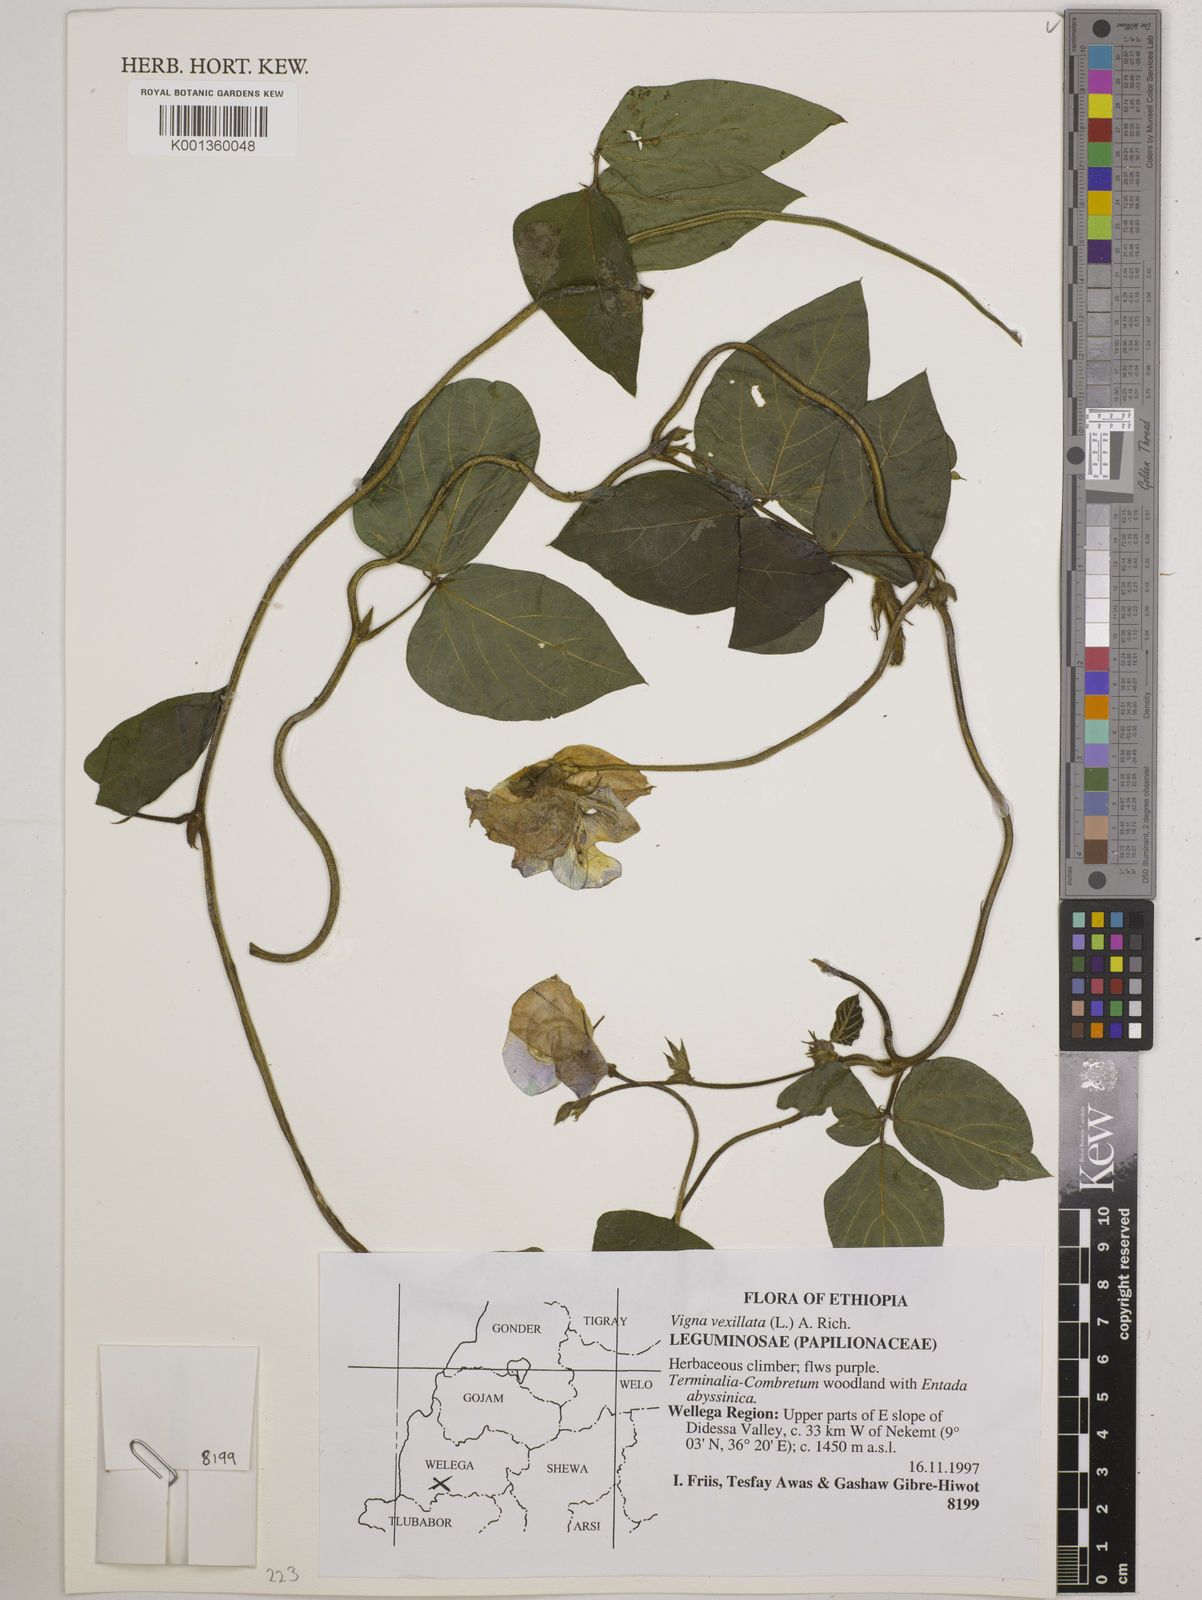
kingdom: Plantae
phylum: Tracheophyta
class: Magnoliopsida
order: Fabales
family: Fabaceae
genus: Vigna
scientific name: Vigna vexillata
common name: Zombi pea
